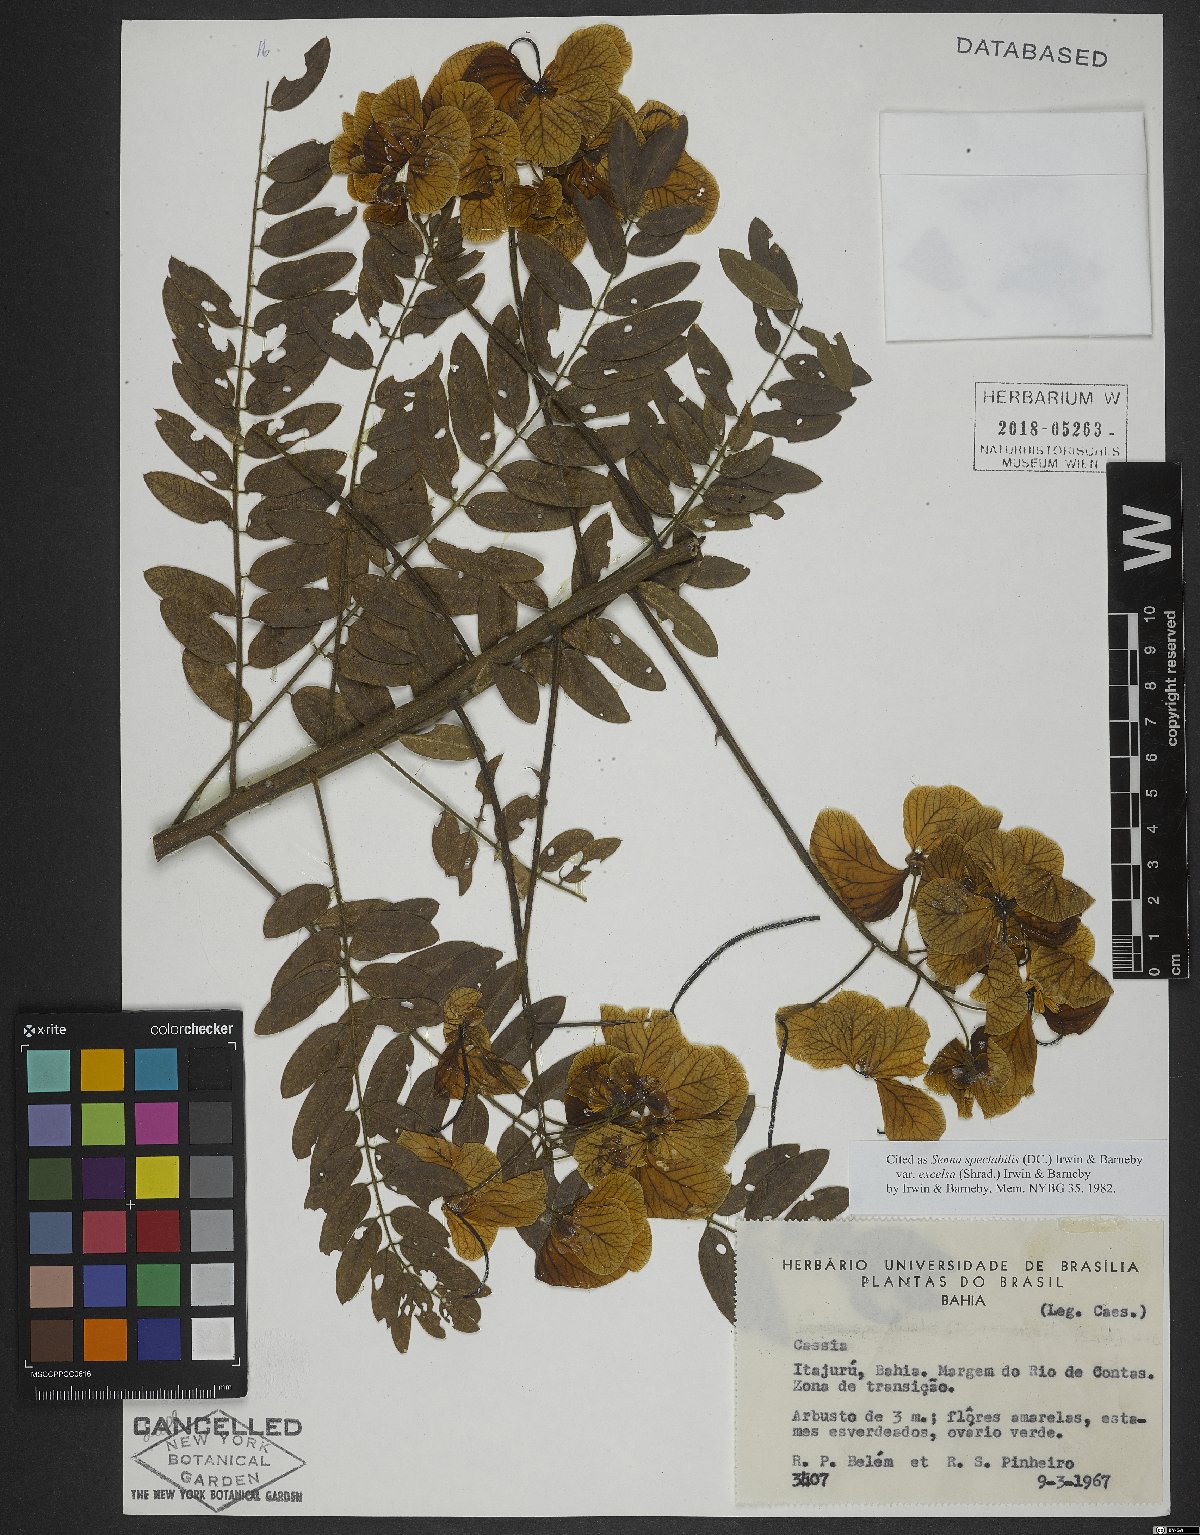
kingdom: Plantae
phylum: Tracheophyta
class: Magnoliopsida
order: Fabales
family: Fabaceae
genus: Senna
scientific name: Senna spectabilis
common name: Casia amarilla
